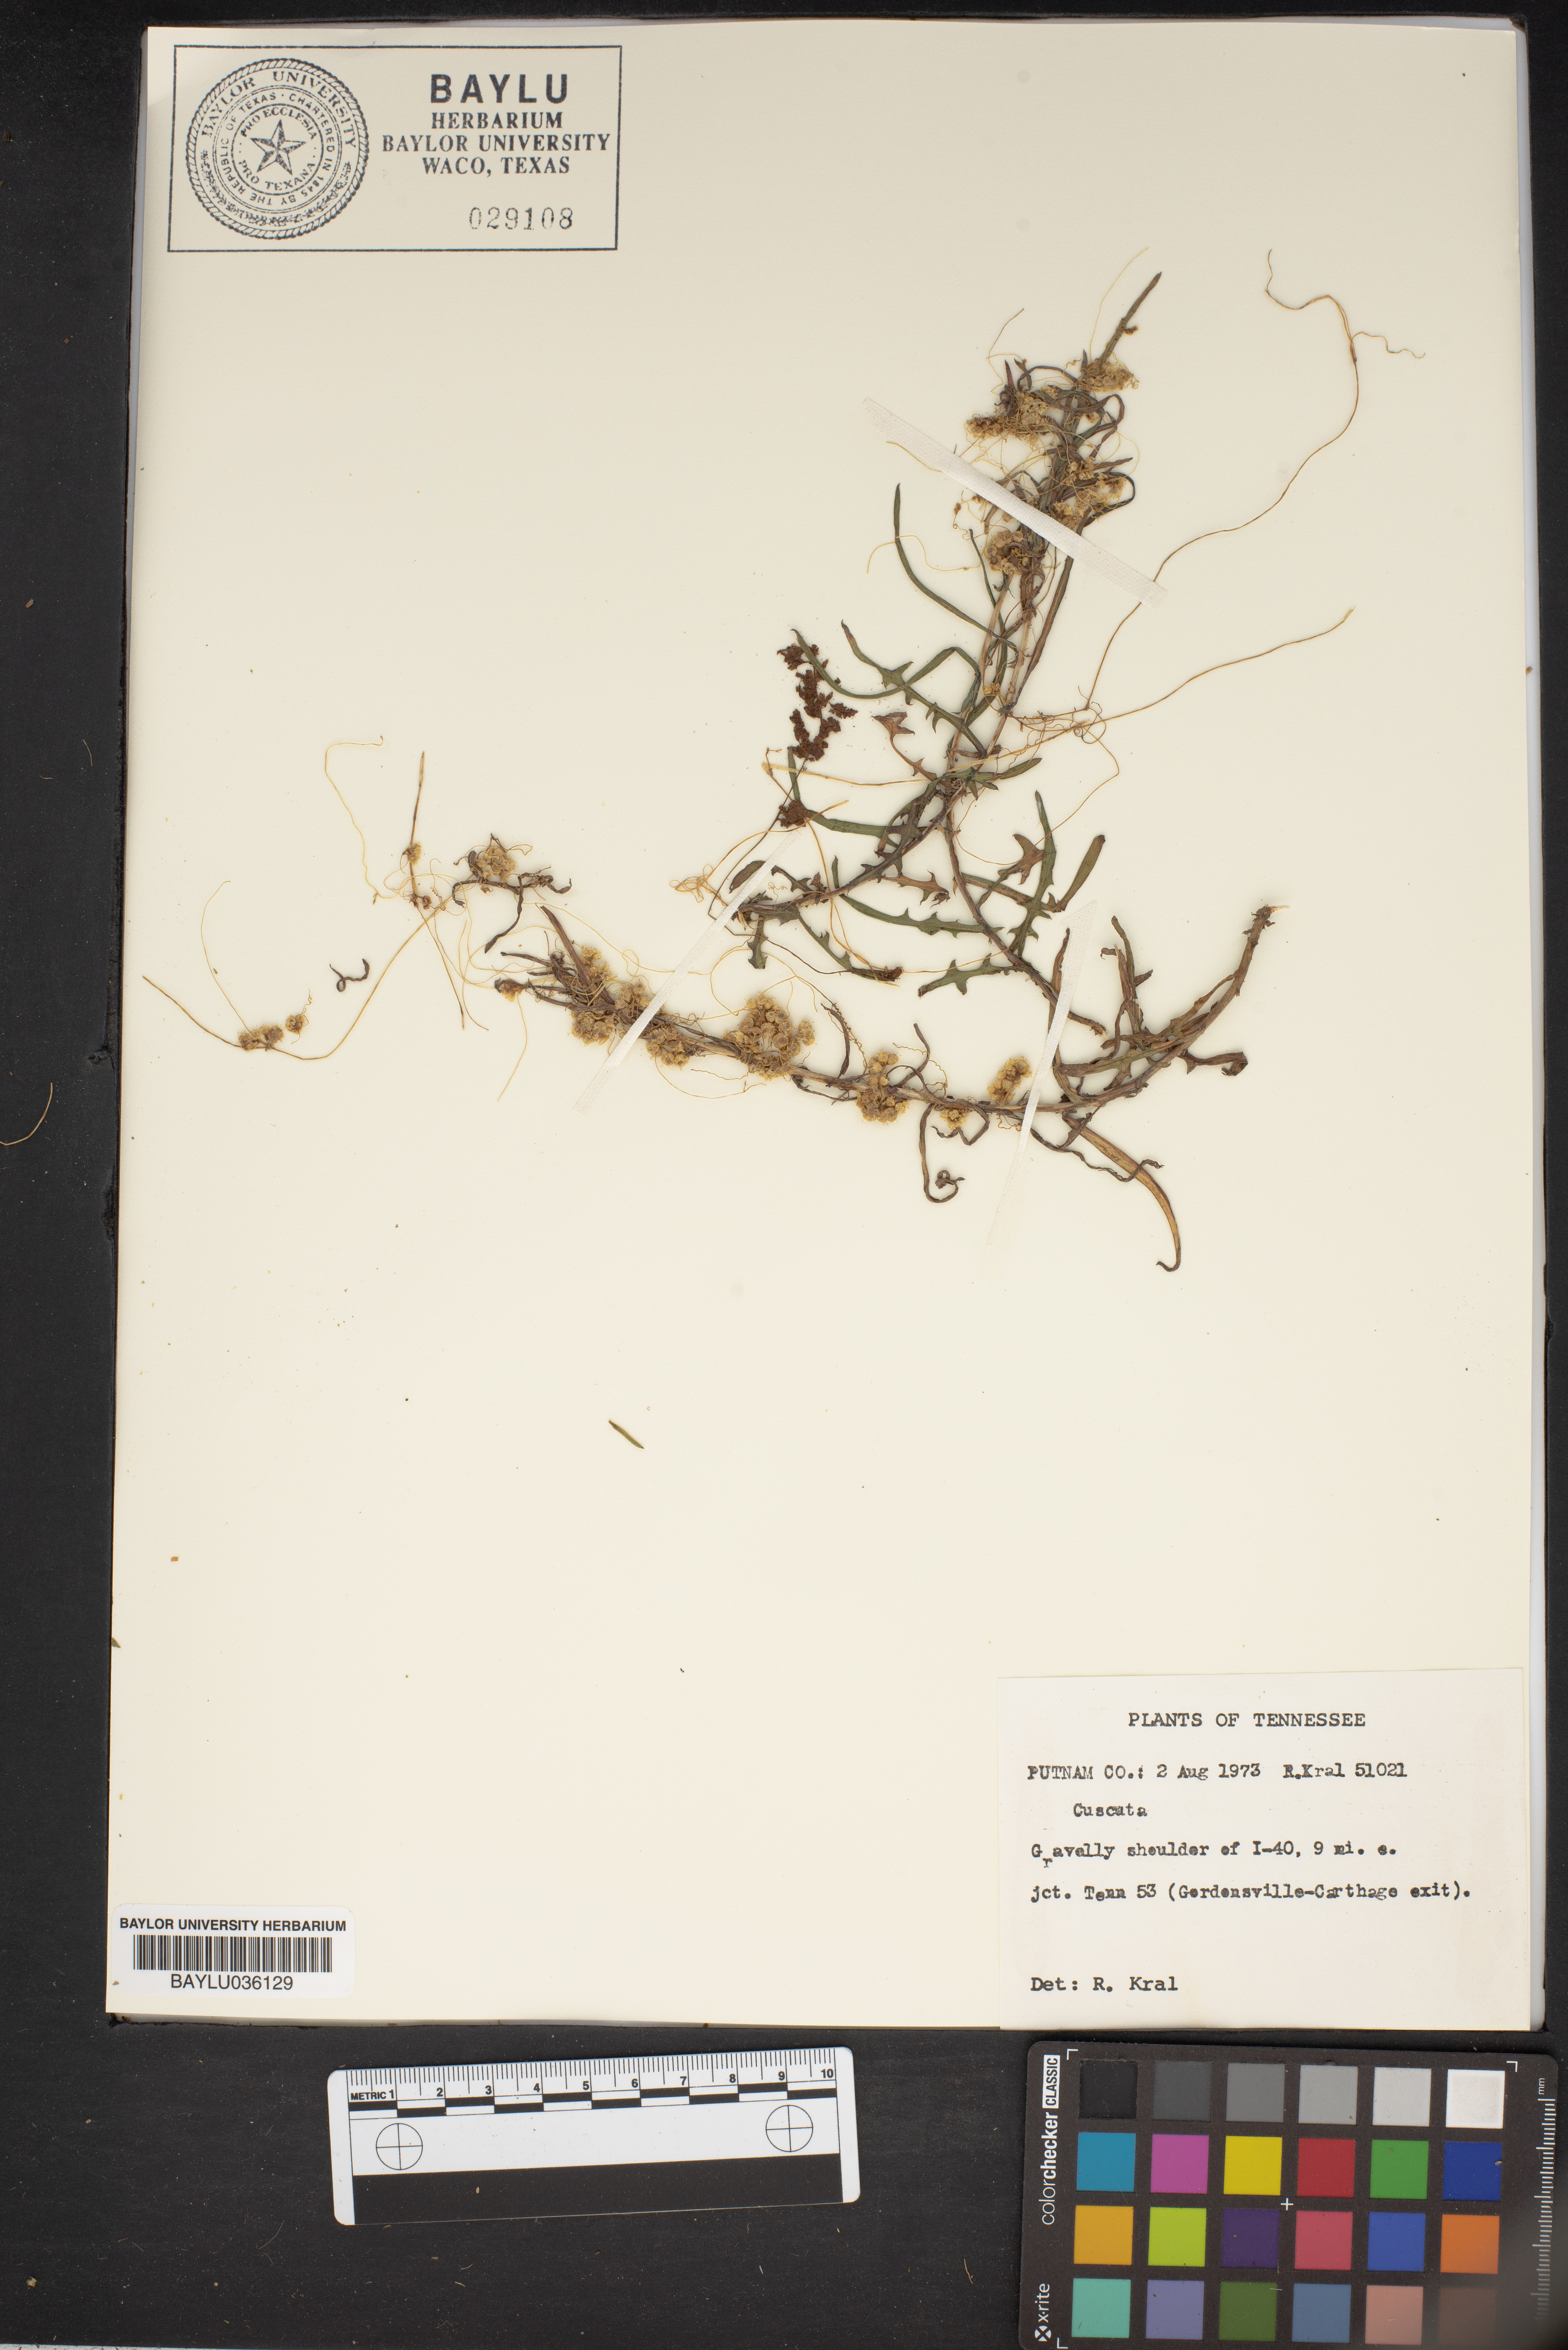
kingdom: Plantae
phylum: Tracheophyta
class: Magnoliopsida
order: Solanales
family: Convolvulaceae
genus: Cuscuta
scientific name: Cuscuta
